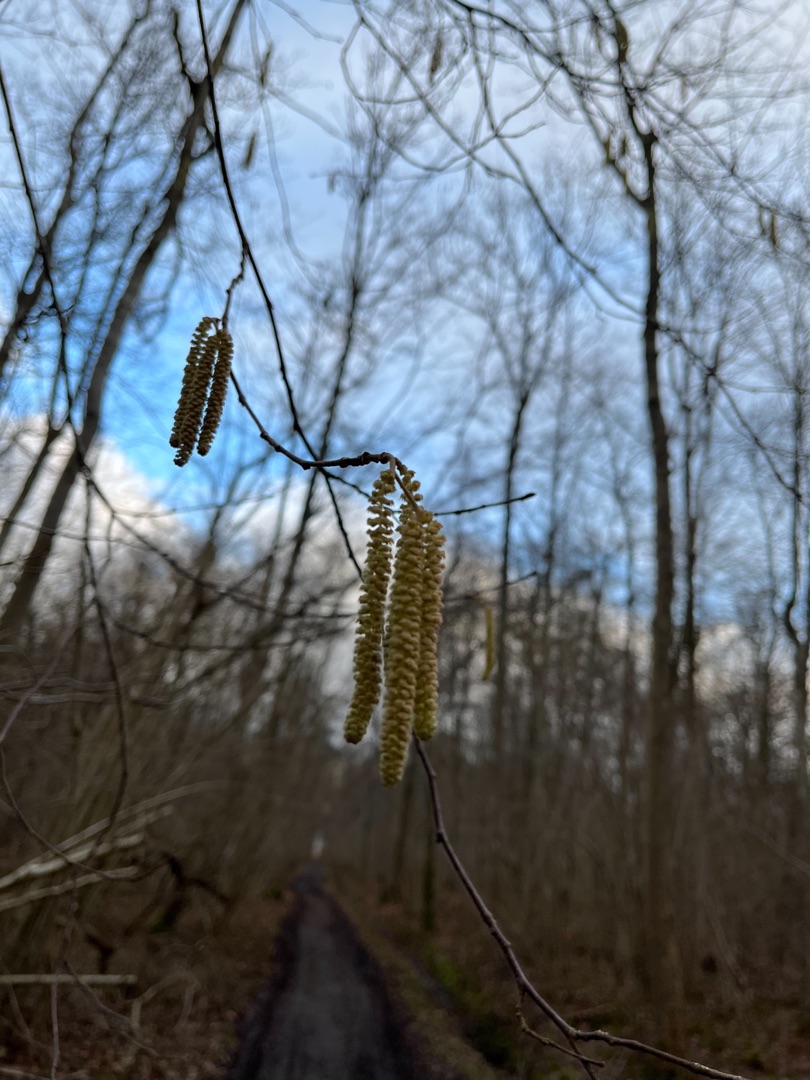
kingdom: Plantae
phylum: Tracheophyta
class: Magnoliopsida
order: Fagales
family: Betulaceae
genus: Corylus
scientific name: Corylus avellana
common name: Hassel
